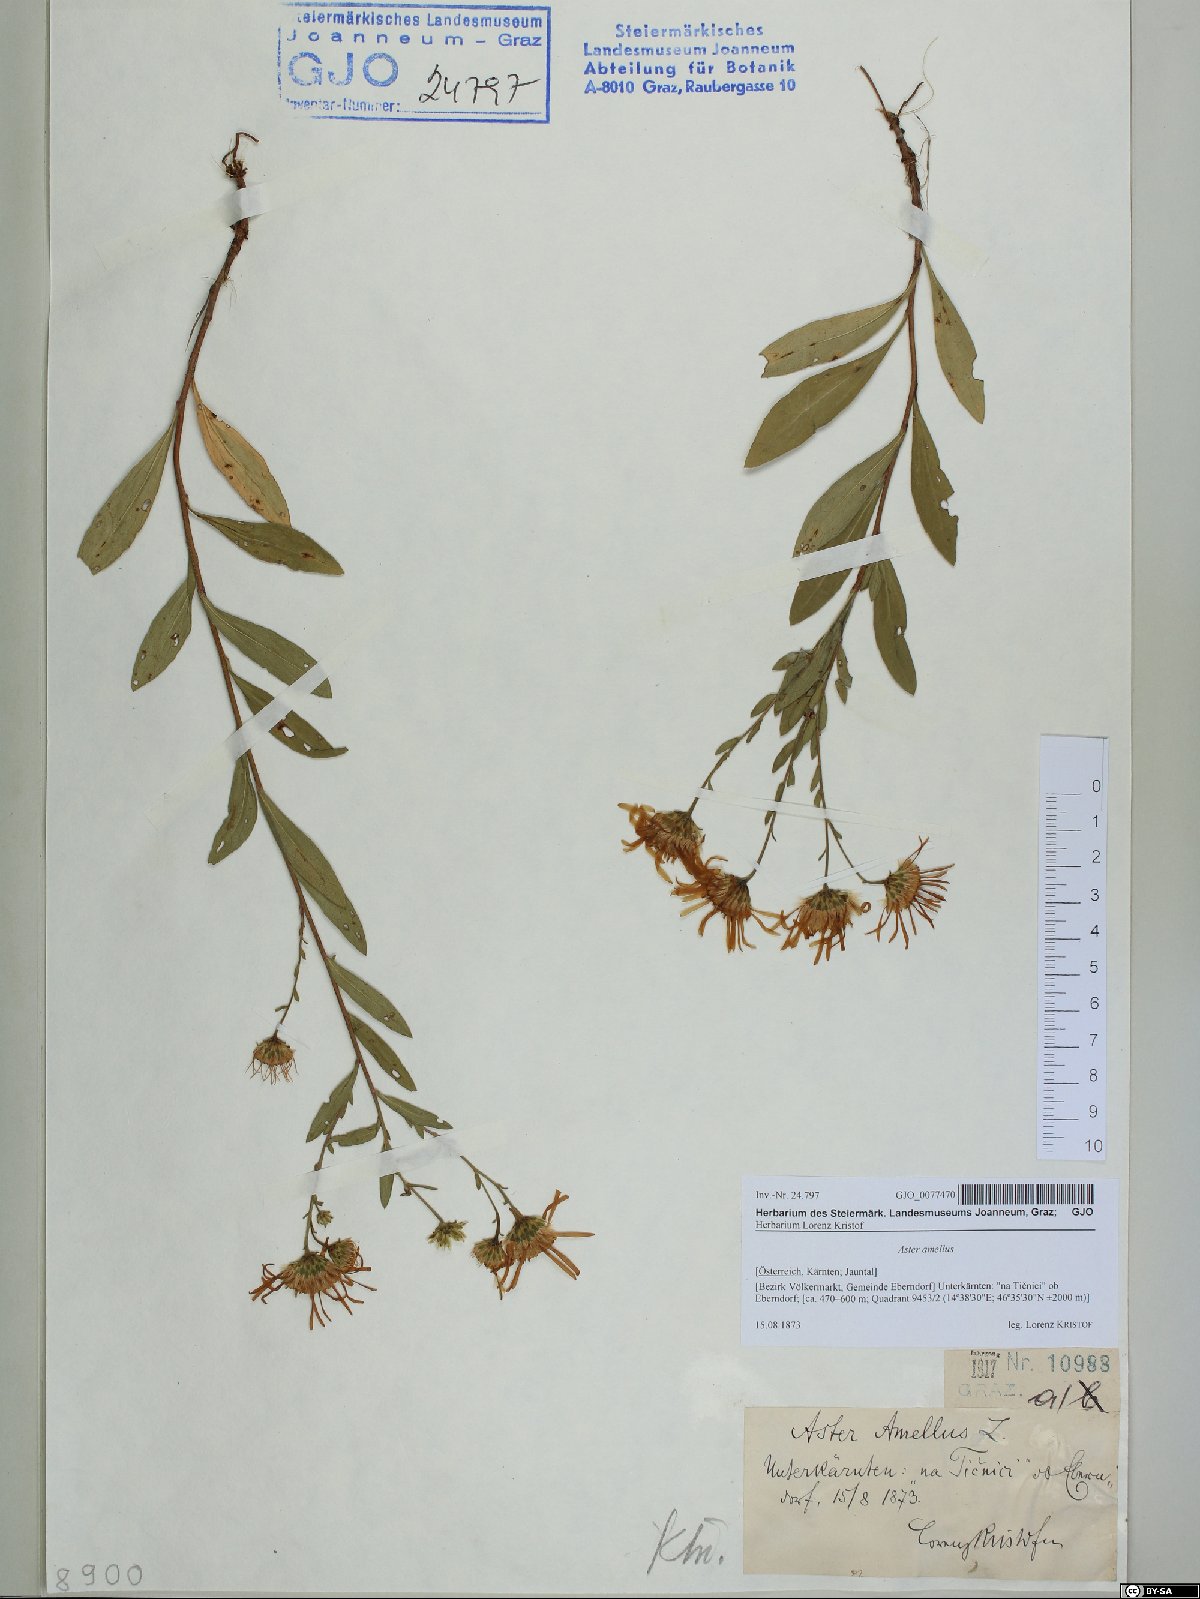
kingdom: Plantae
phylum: Tracheophyta
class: Magnoliopsida
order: Asterales
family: Asteraceae
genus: Aster
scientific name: Aster amellus
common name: European michaelmas daisy
